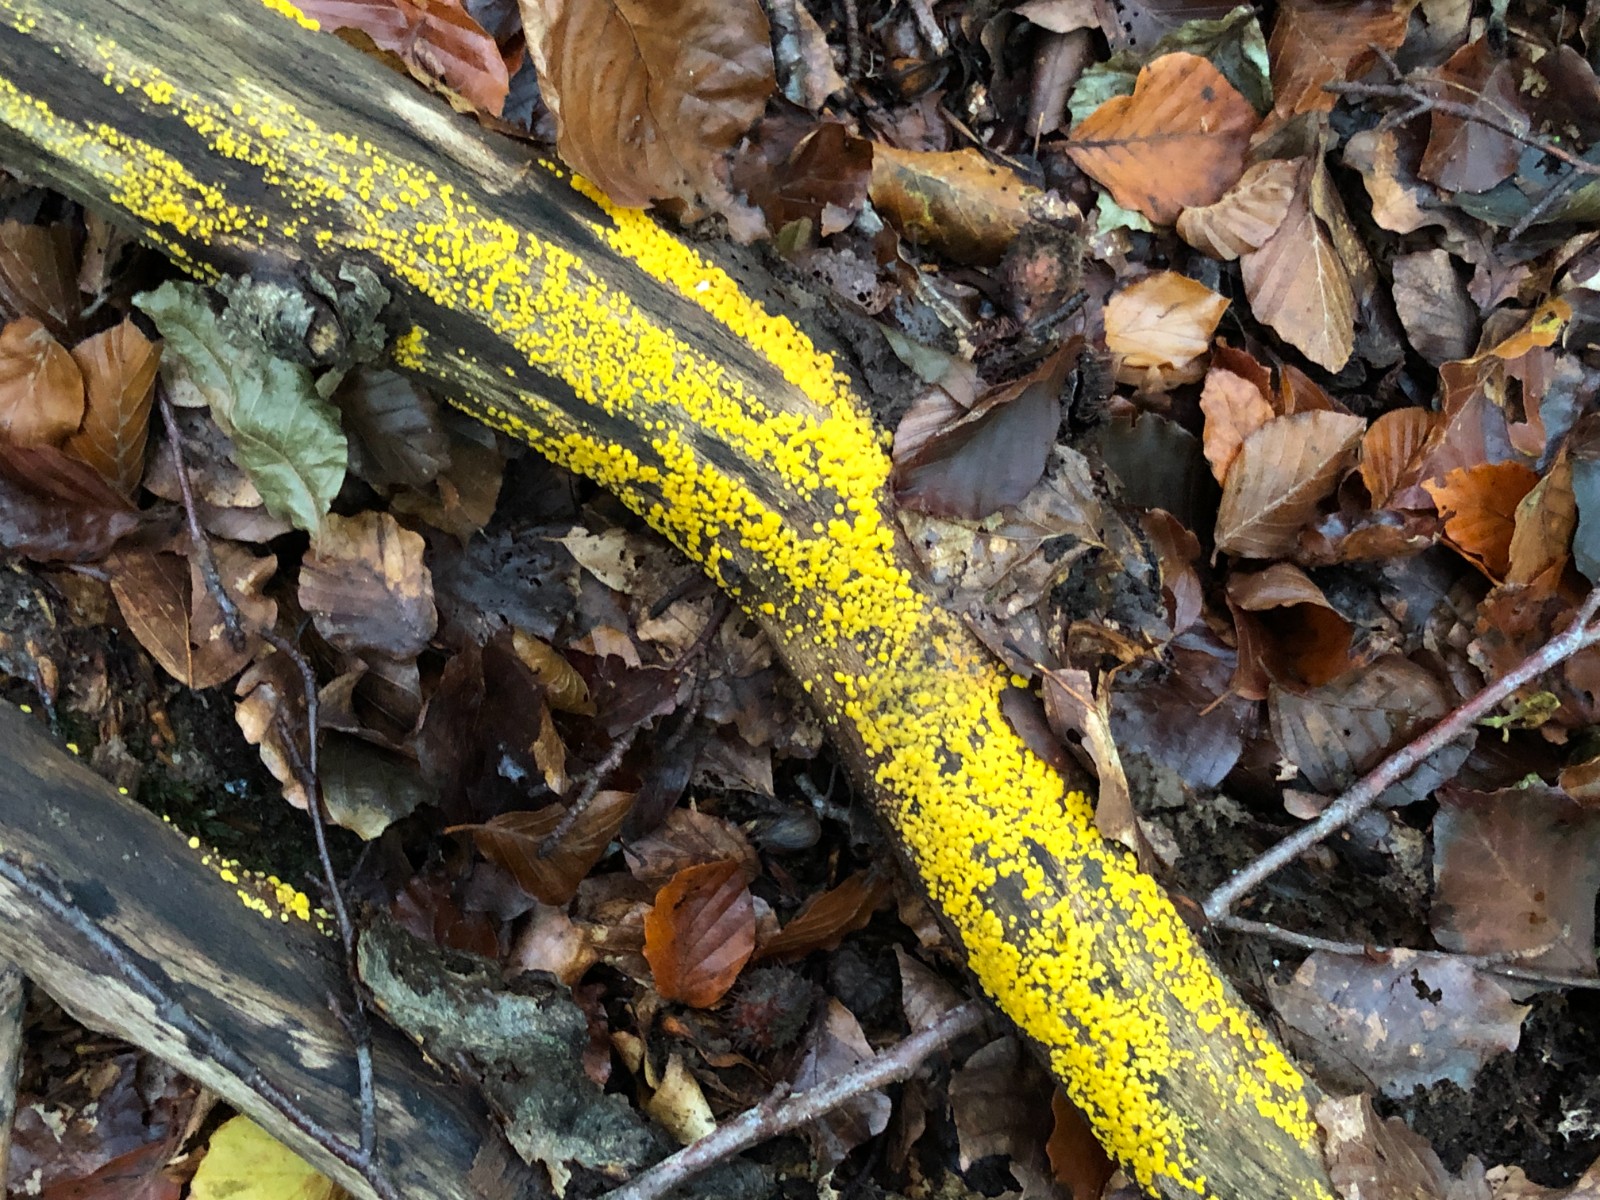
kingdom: Fungi
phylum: Ascomycota
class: Leotiomycetes
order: Helotiales
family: Pezizellaceae
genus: Calycina
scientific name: Calycina citrina
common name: almindelig gulskive
